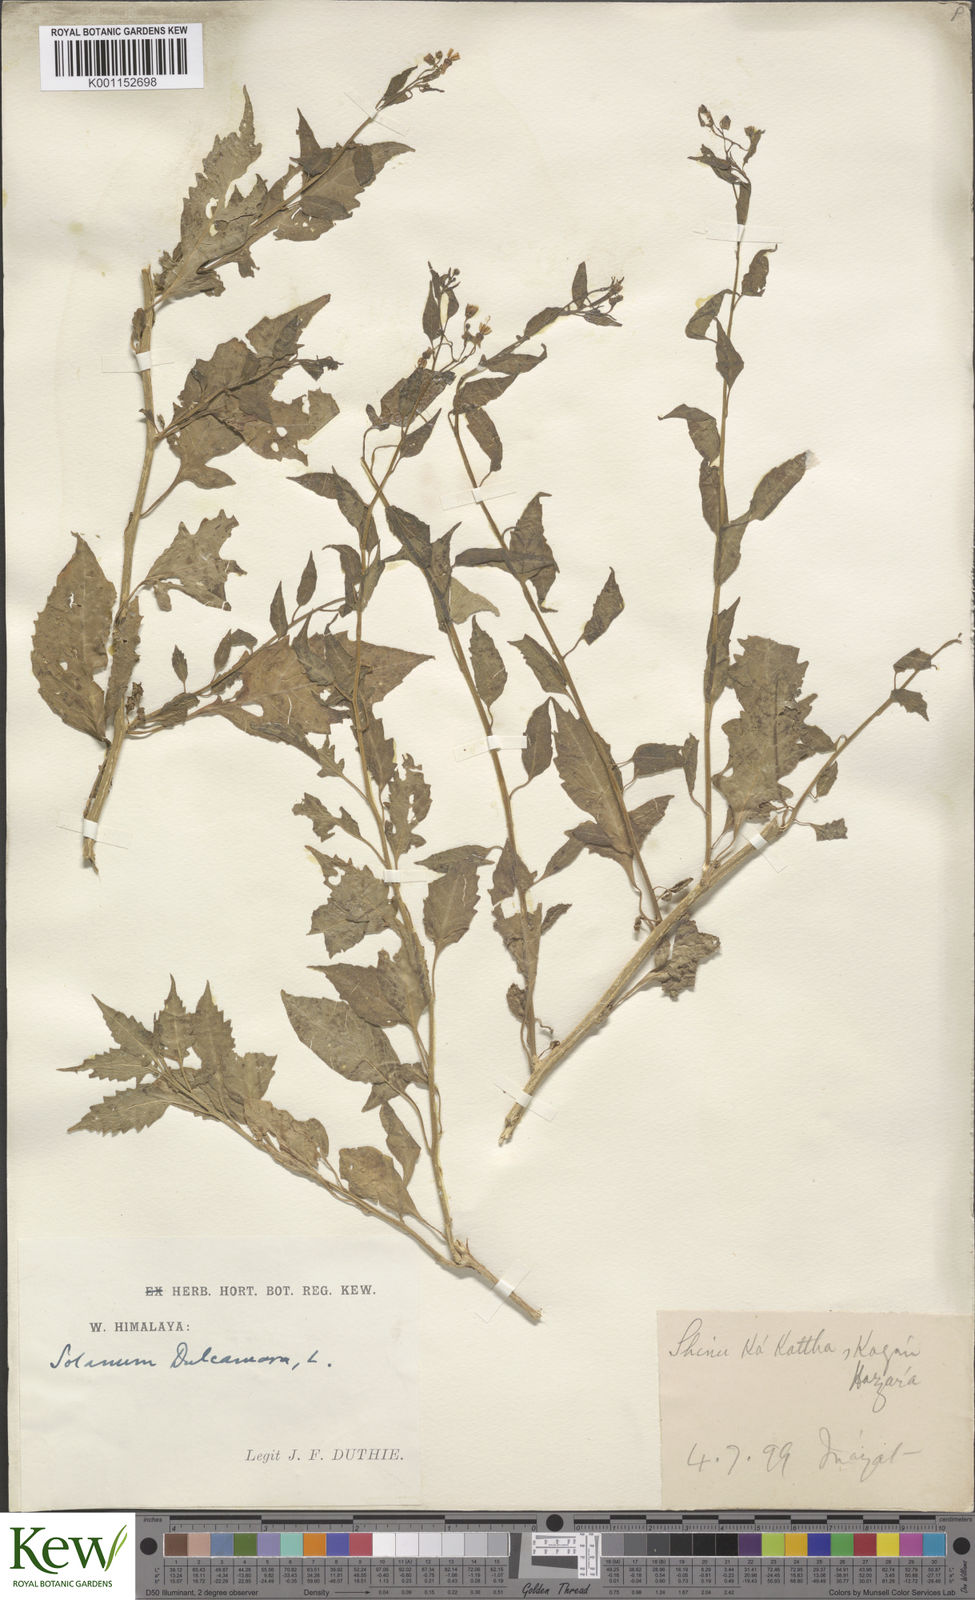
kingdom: Plantae
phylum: Tracheophyta
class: Magnoliopsida
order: Solanales
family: Solanaceae
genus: Solanum
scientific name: Solanum dulcamara
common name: Climbing nightshade
